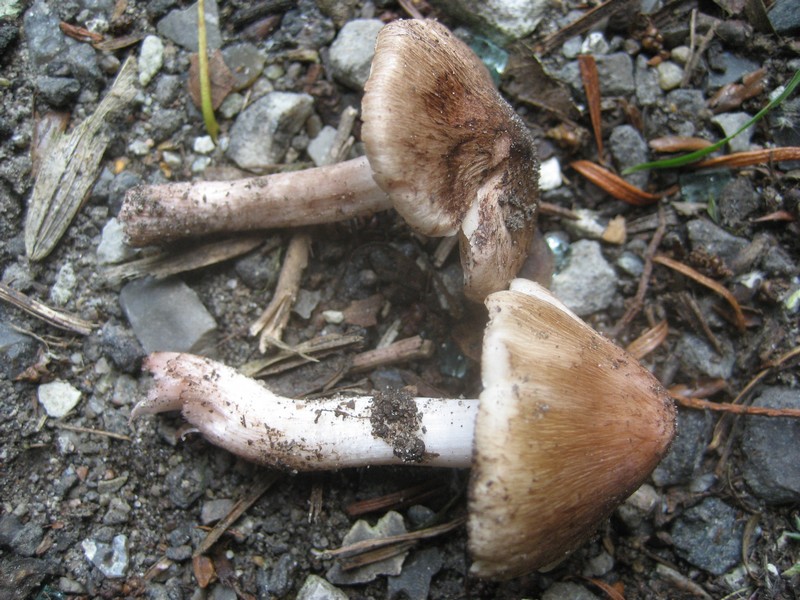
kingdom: Fungi
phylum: Basidiomycota
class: Agaricomycetes
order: Agaricales
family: Inocybaceae
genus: Inosperma
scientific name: Inosperma adaequatum
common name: vinrød trævlhat
